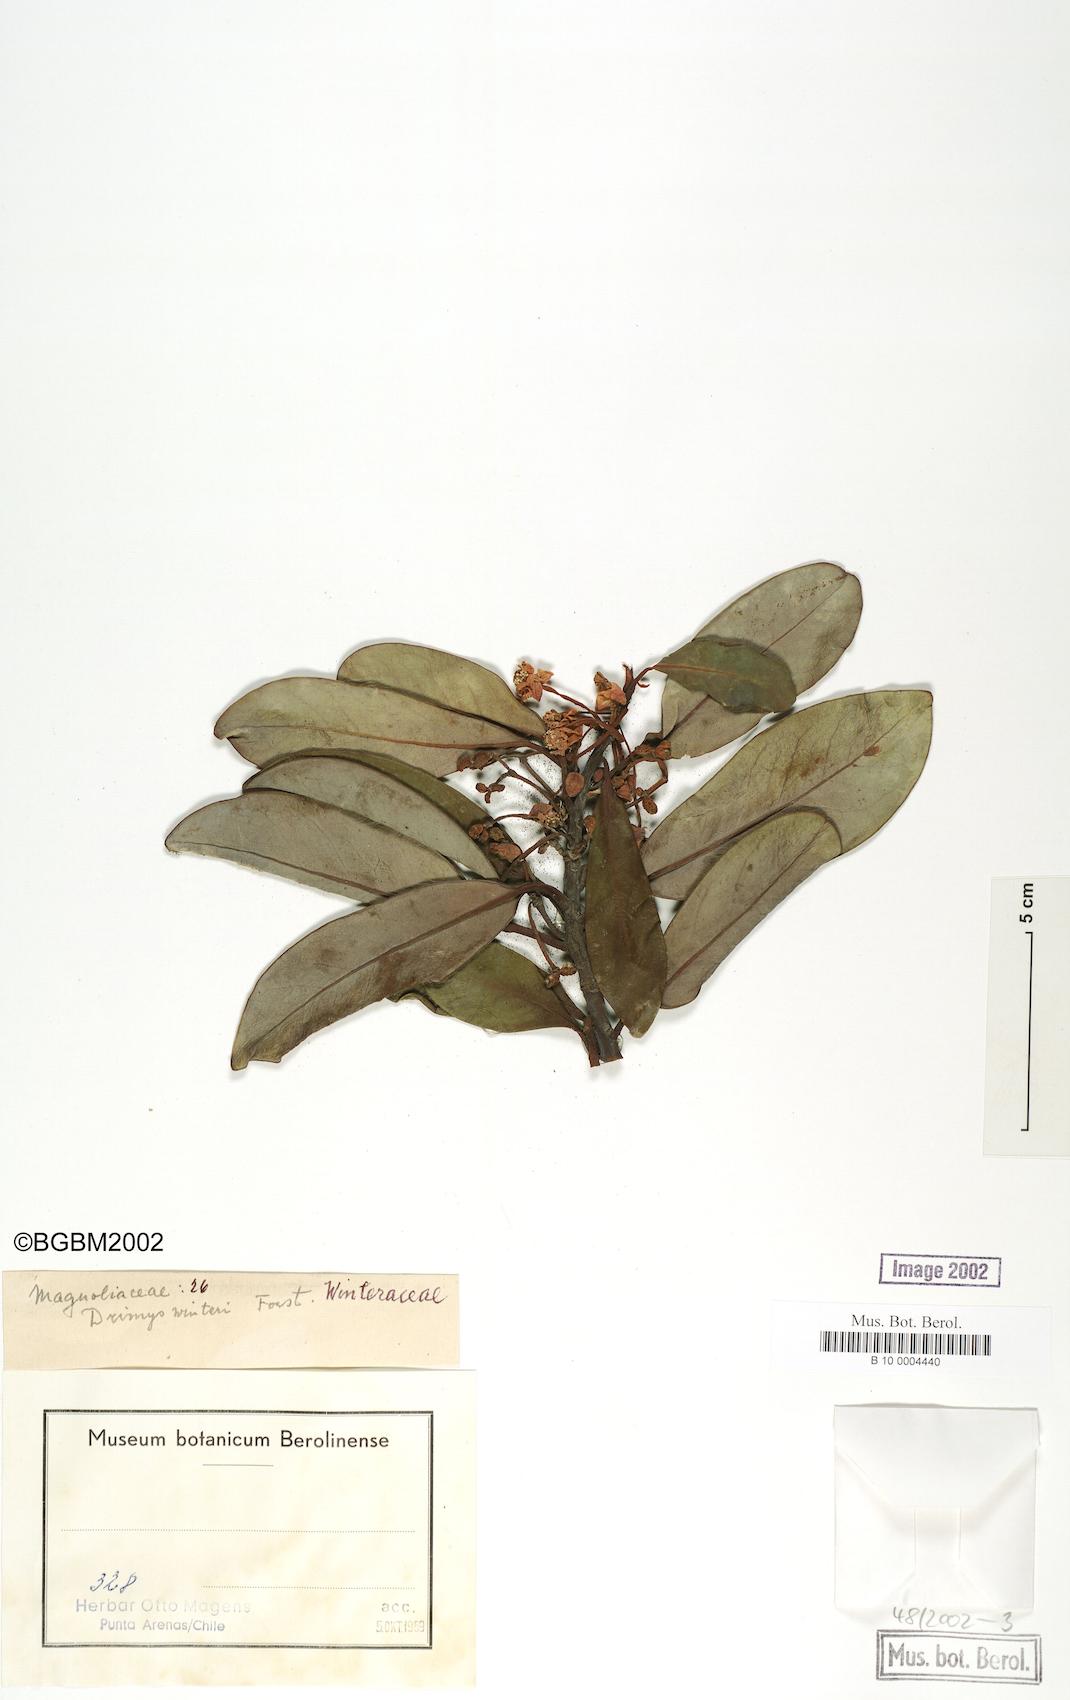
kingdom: Plantae
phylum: Tracheophyta
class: Magnoliopsida
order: Canellales
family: Winteraceae
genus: Drimys
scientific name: Drimys winteri
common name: Winter's-bark
